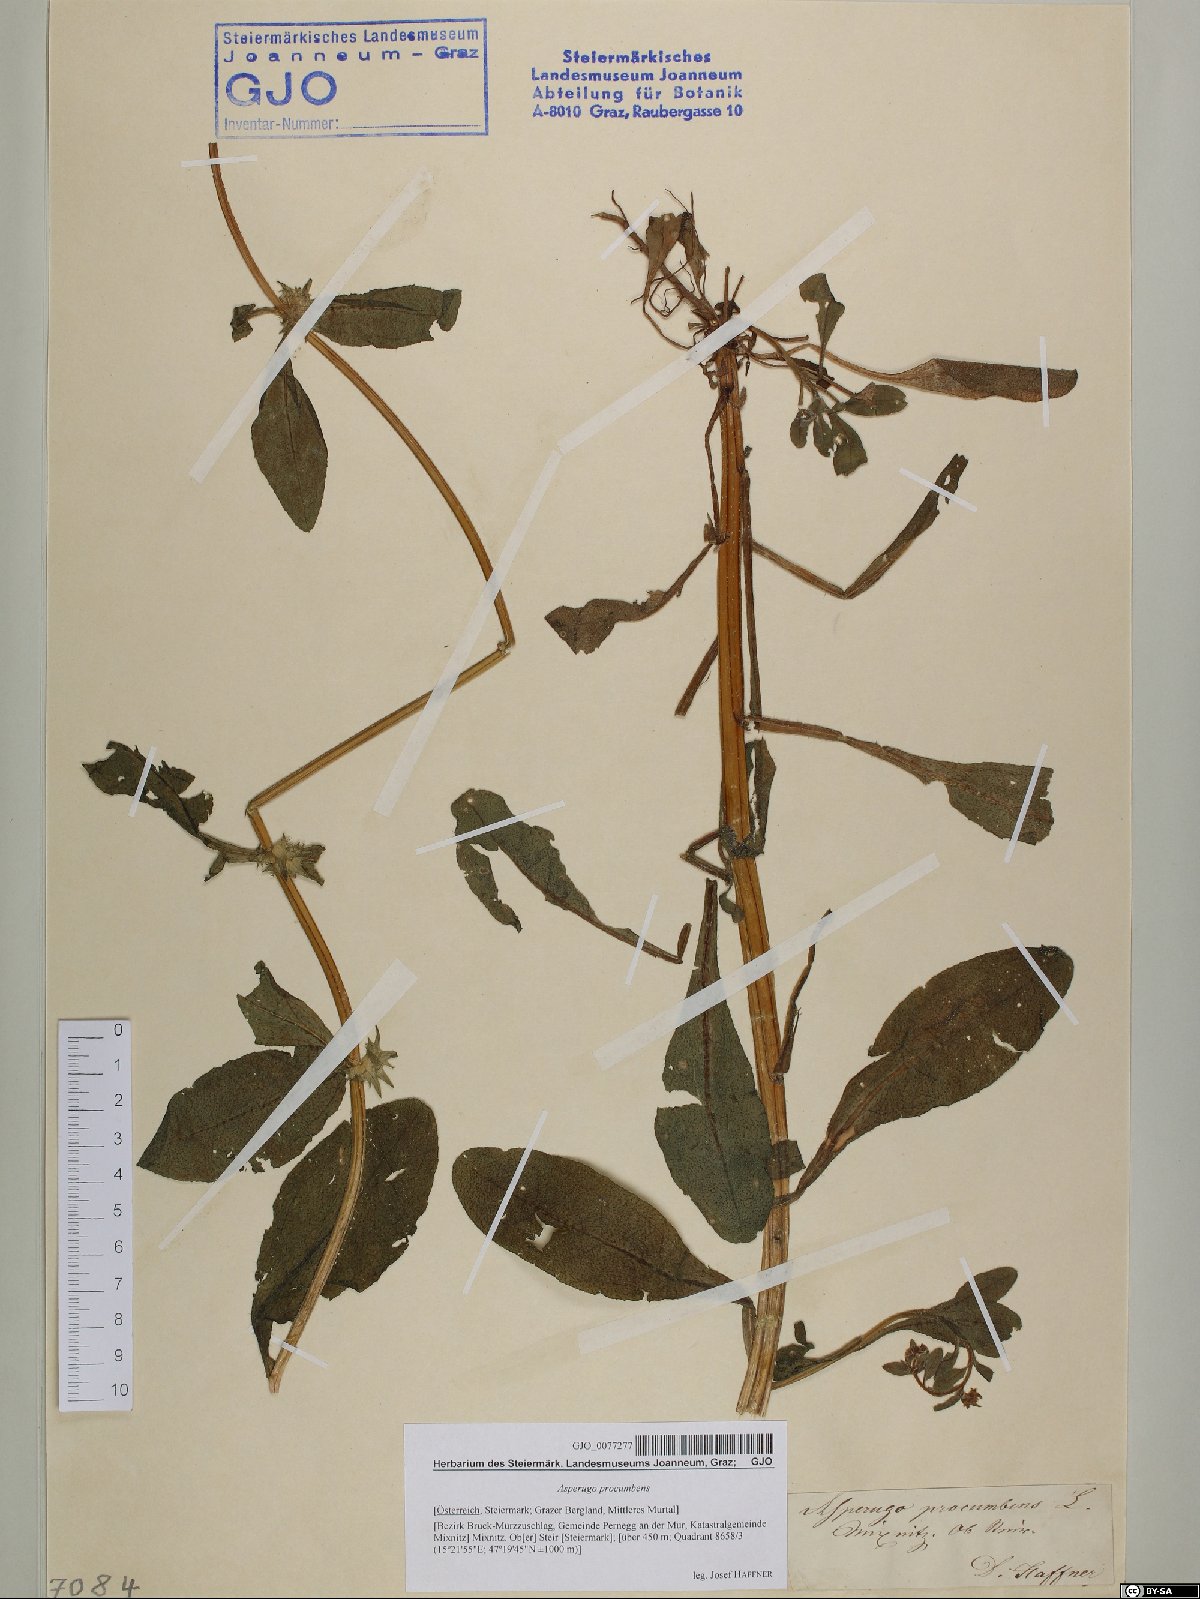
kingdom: Plantae
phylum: Tracheophyta
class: Magnoliopsida
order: Boraginales
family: Boraginaceae
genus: Asperugo
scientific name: Asperugo procumbens
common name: Madwort
